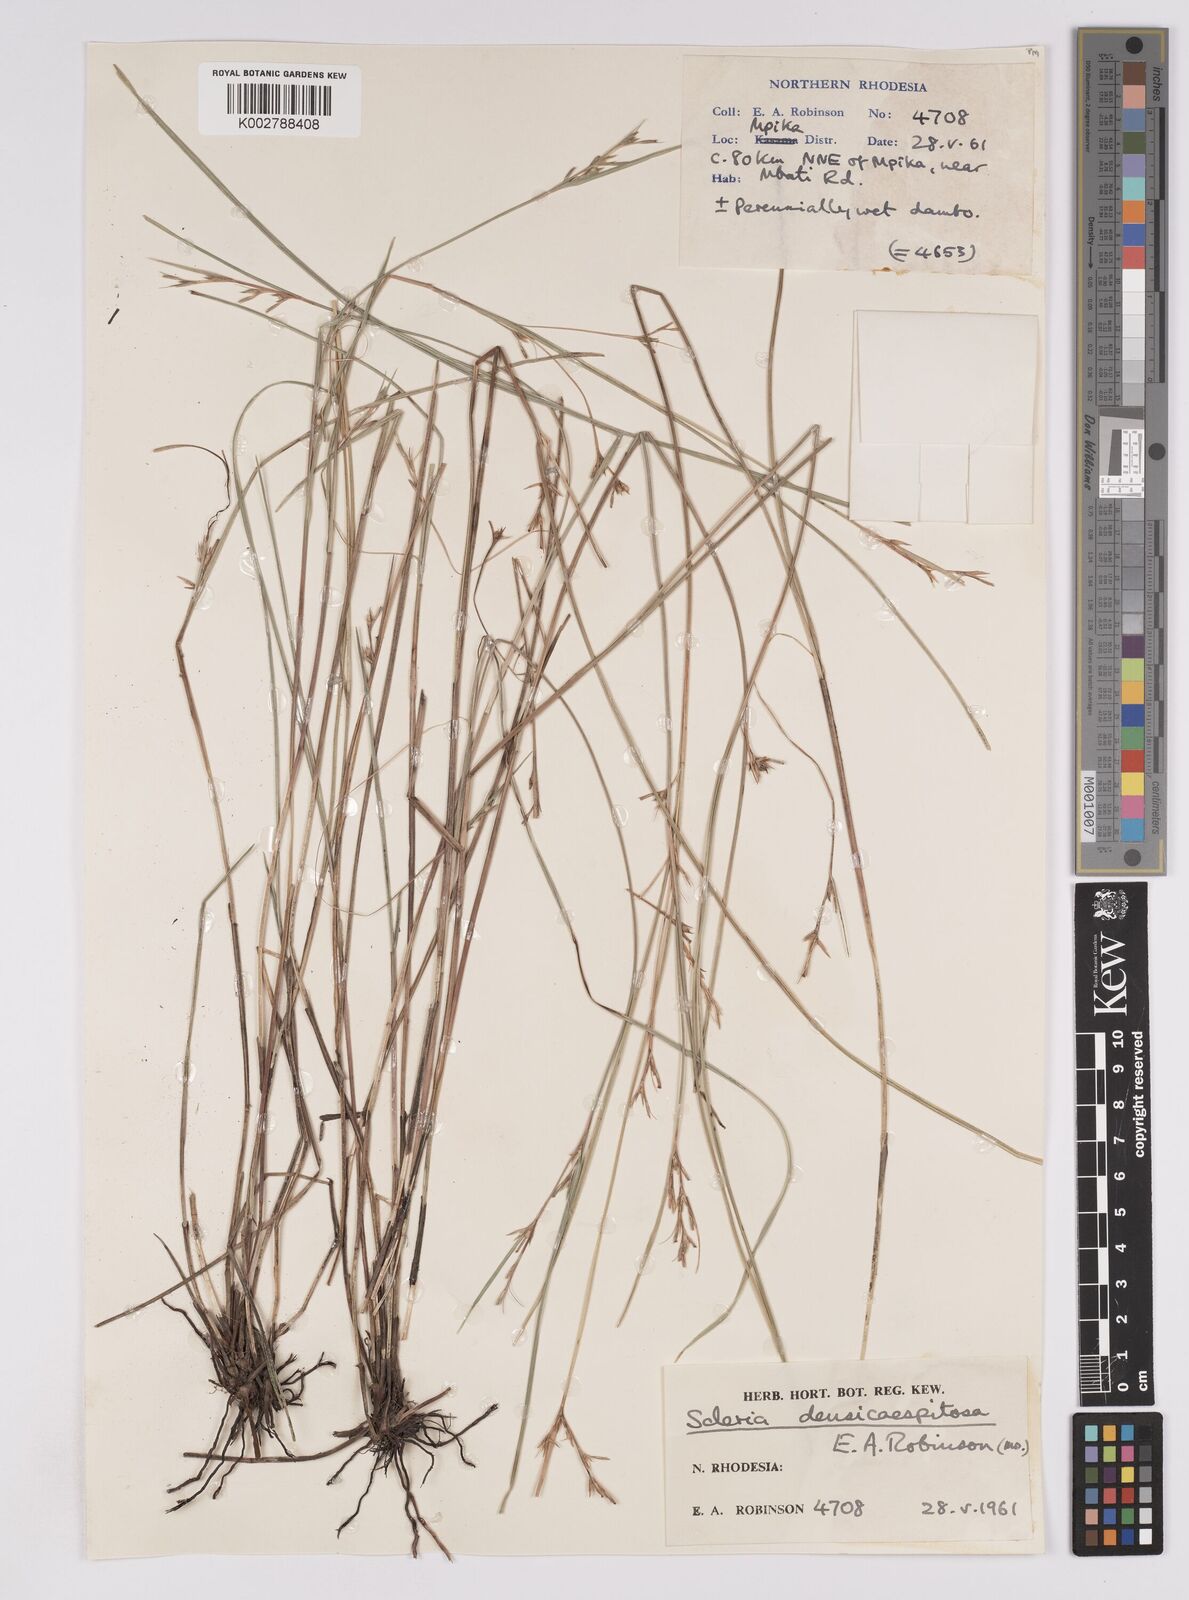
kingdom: Plantae
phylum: Tracheophyta
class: Liliopsida
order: Poales
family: Cyperaceae
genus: Scleria
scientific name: Scleria unguiculata
